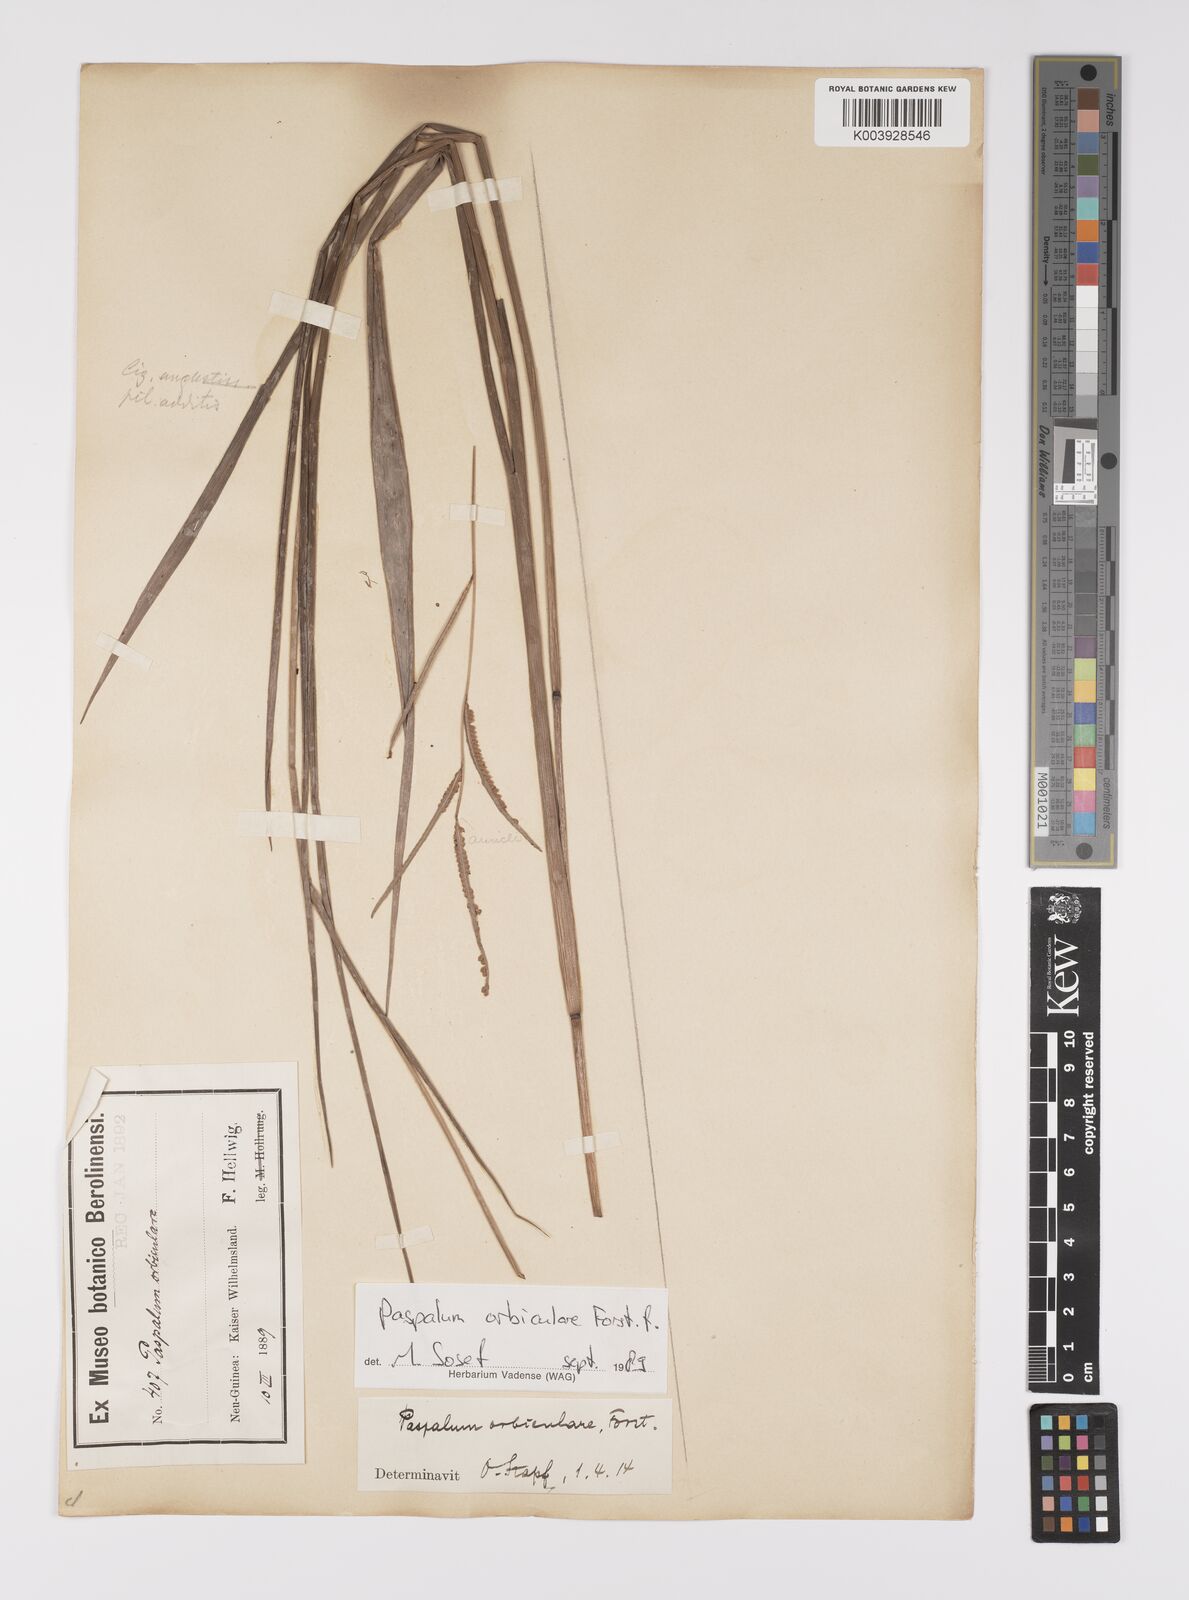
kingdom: Plantae
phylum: Tracheophyta
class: Liliopsida
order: Poales
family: Poaceae
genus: Paspalum
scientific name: Paspalum scrobiculatum
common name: Kodo millet
